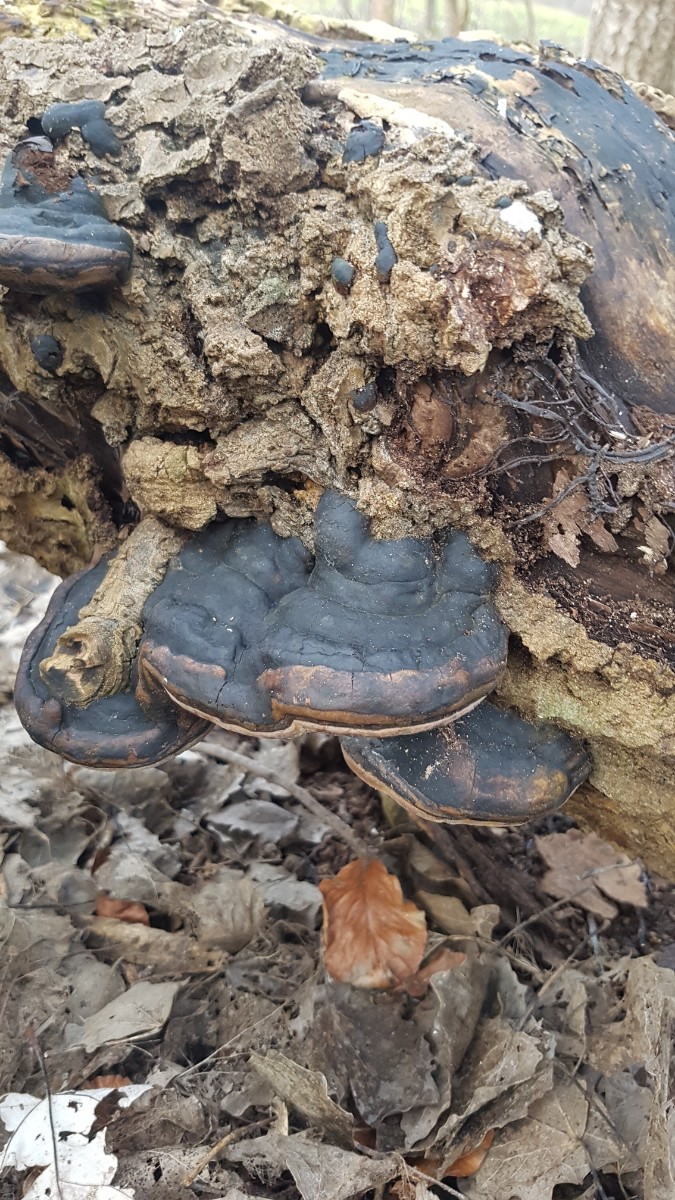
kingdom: Fungi
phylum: Basidiomycota
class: Agaricomycetes
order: Hymenochaetales
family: Hymenochaetaceae
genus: Phellinus
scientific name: Phellinus populicola
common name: poppel-ildporesvamp
